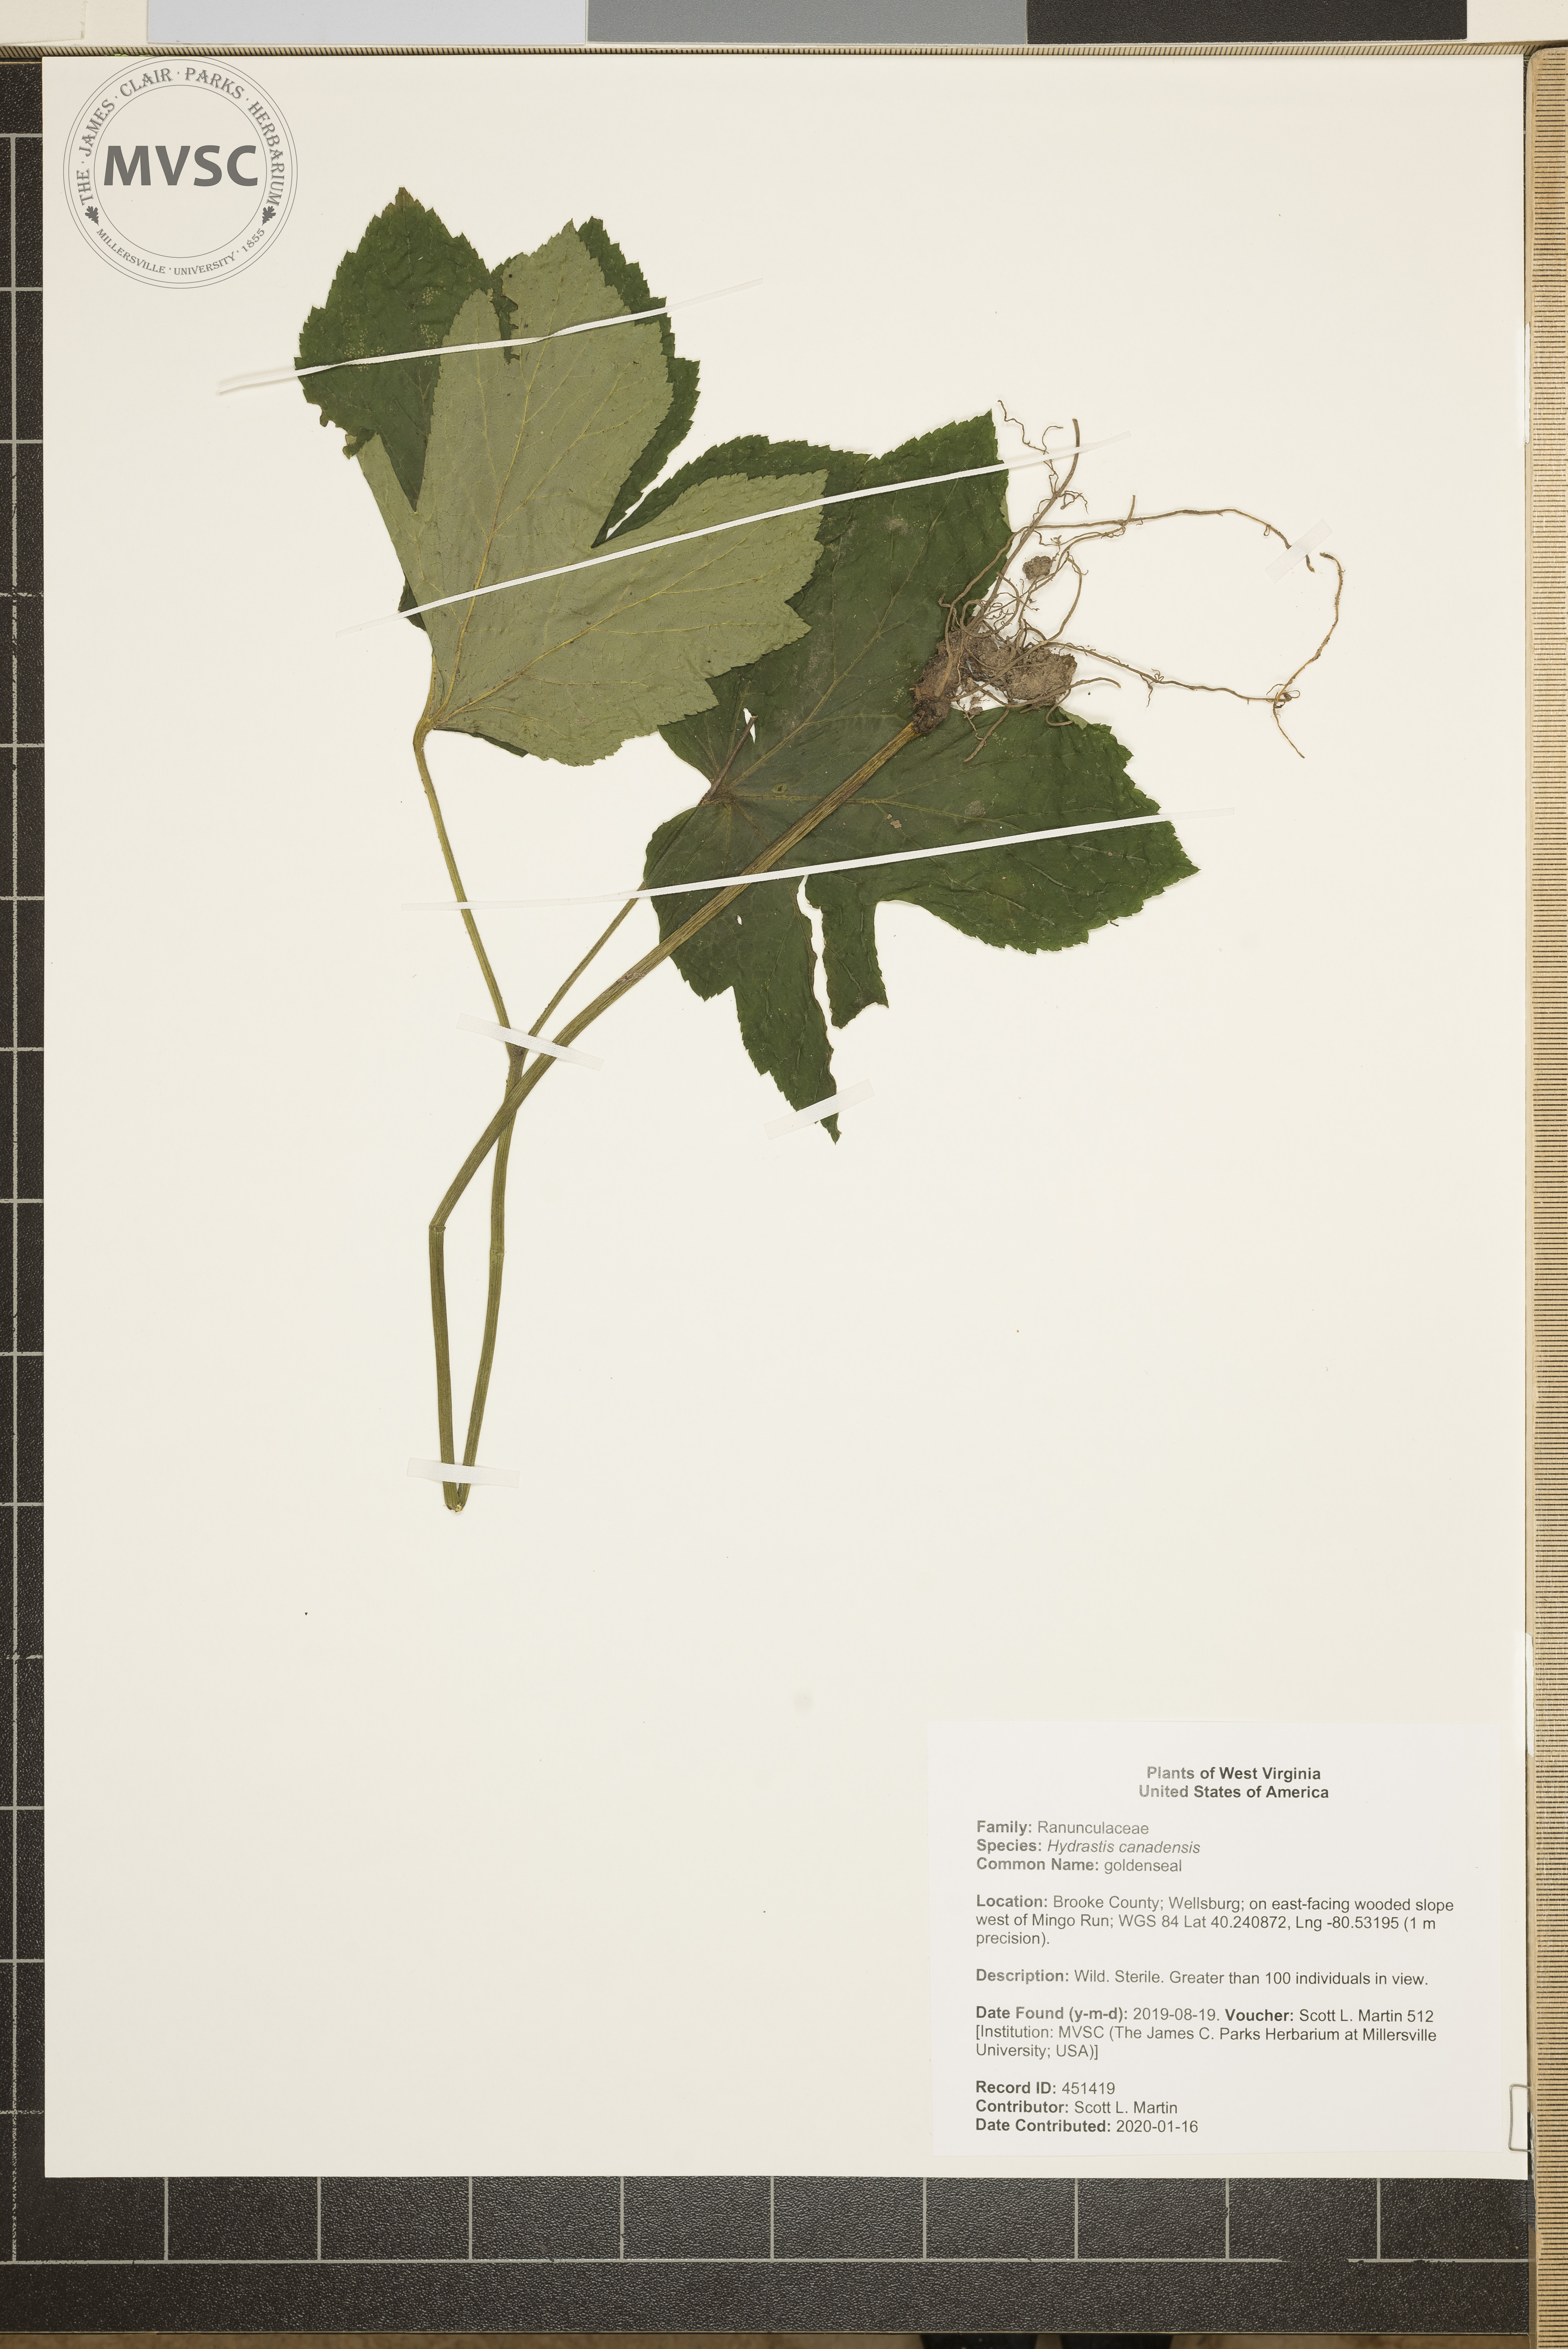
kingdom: Plantae
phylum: Tracheophyta
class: Magnoliopsida
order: Ranunculales
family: Ranunculaceae
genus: Hydrastis
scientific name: Hydrastis canadensis
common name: goldenseal
